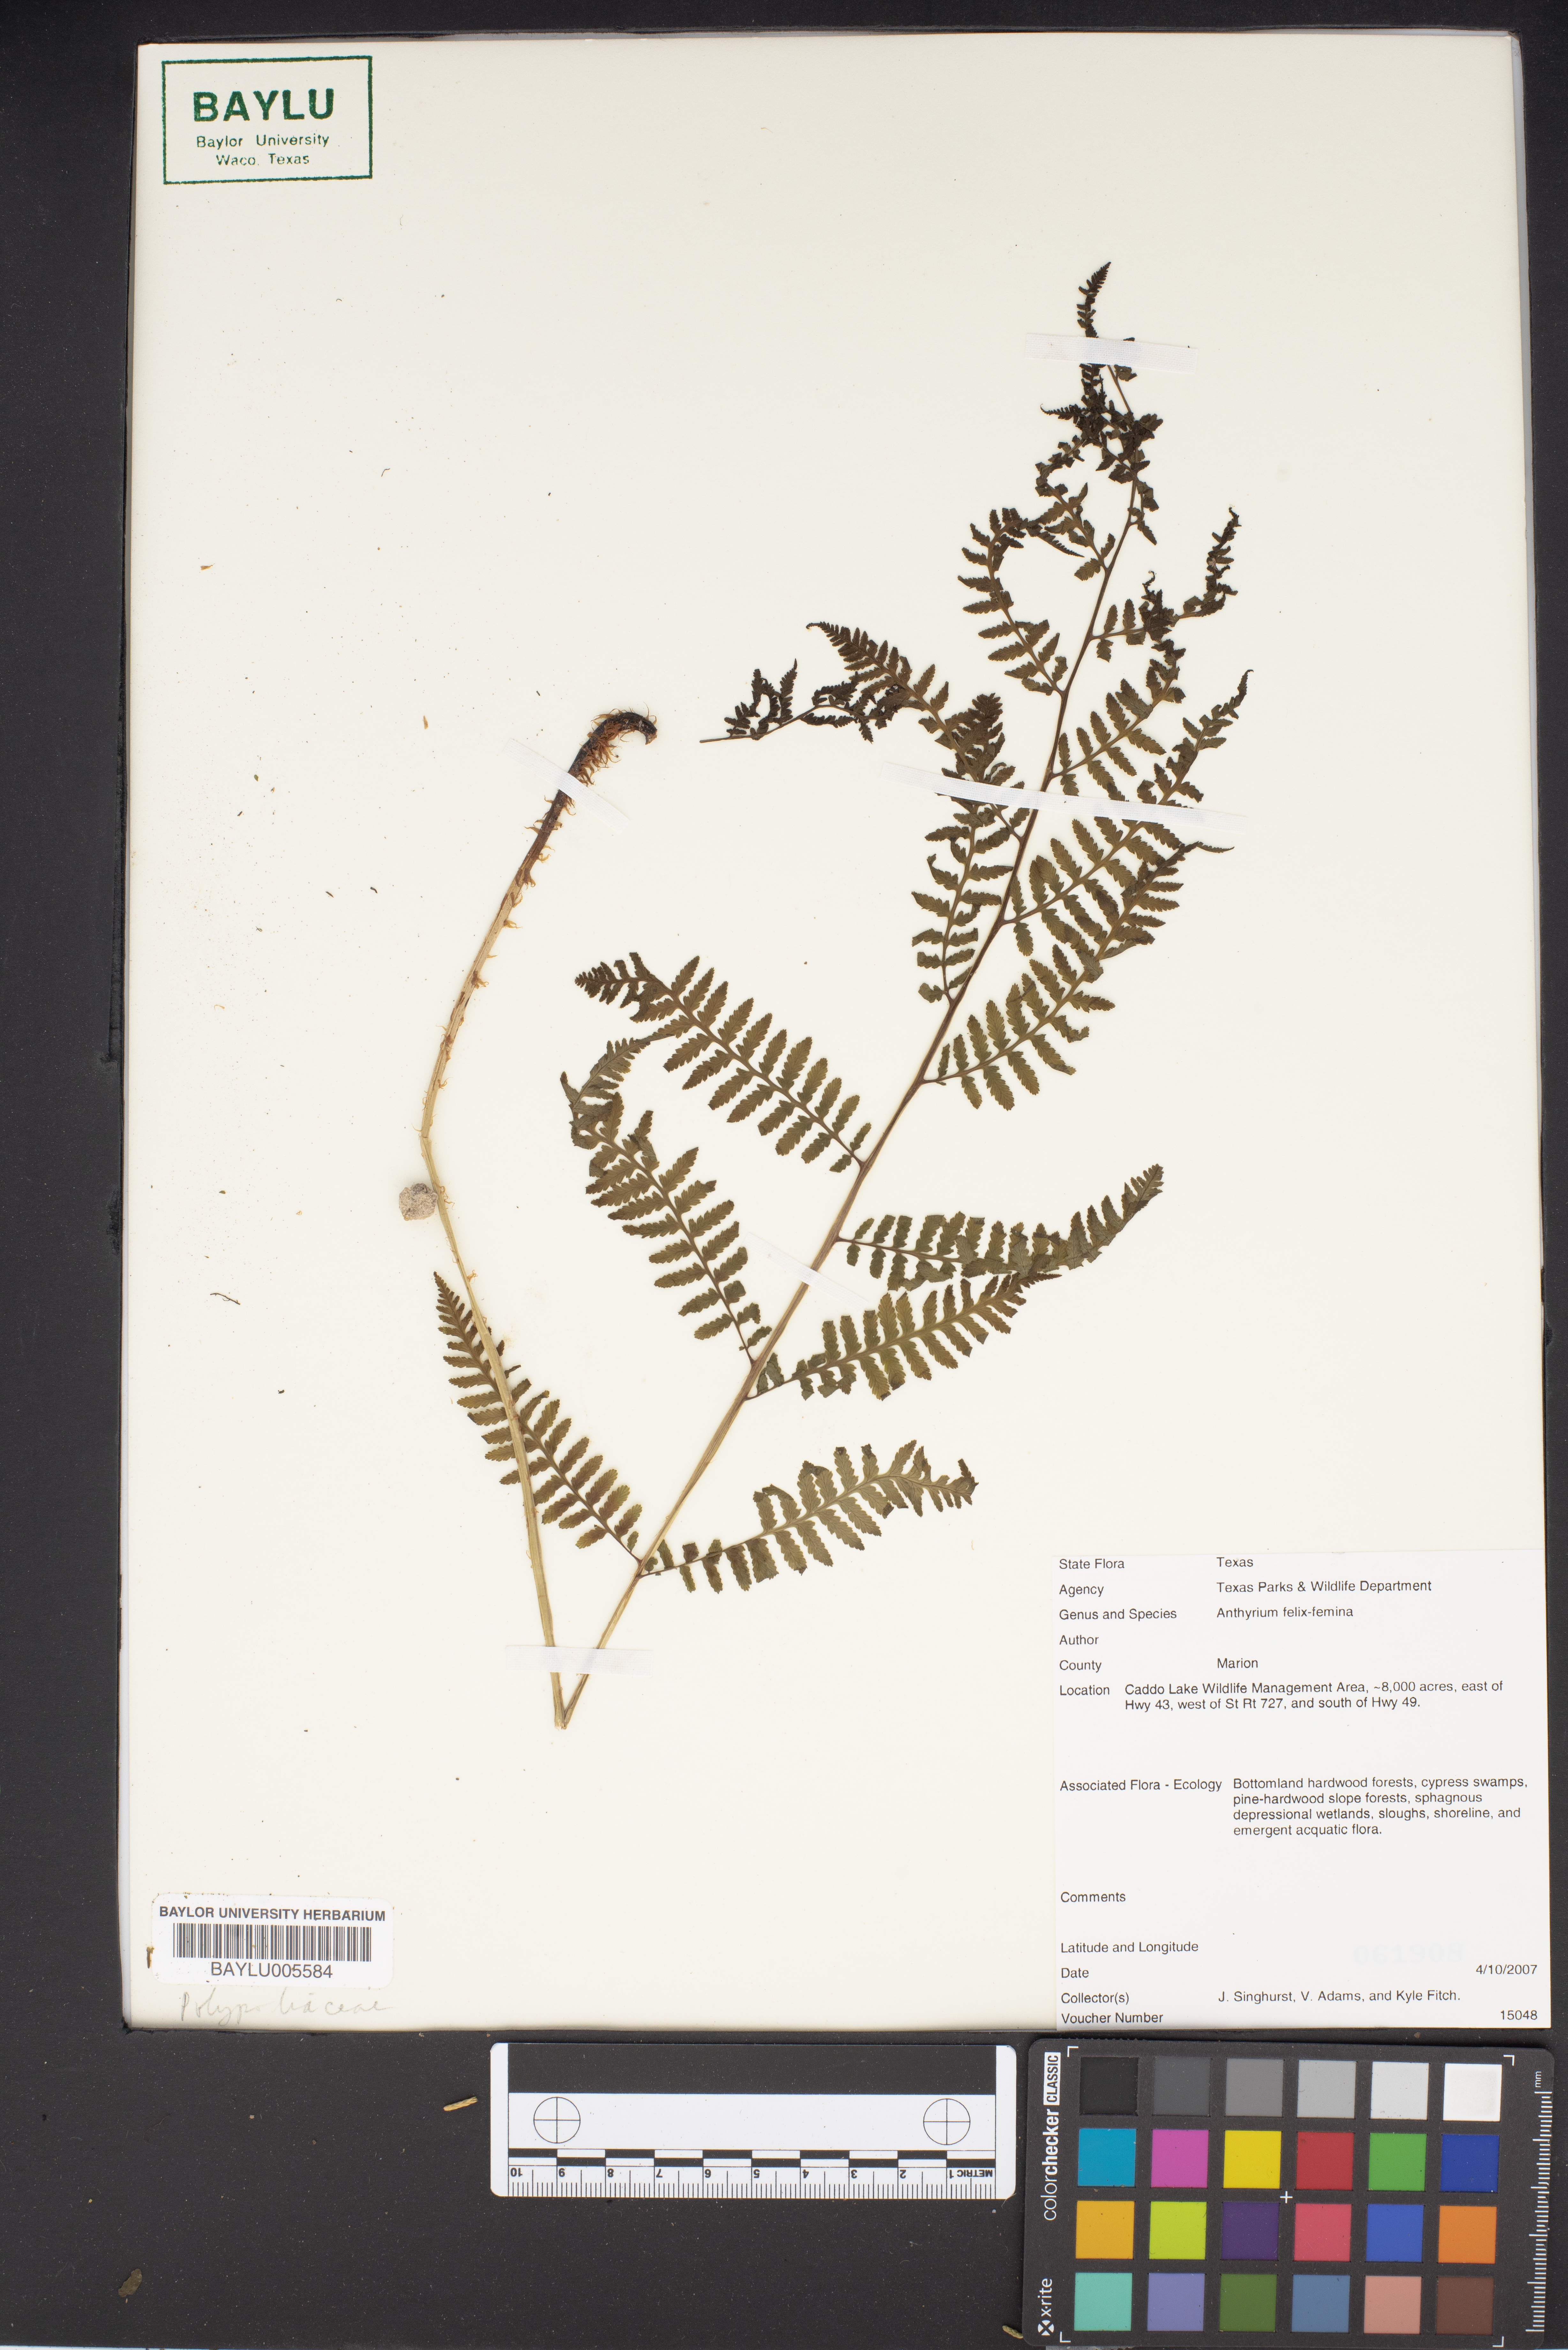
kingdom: Plantae
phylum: Tracheophyta
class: Polypodiopsida
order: Polypodiales
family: Athyriaceae
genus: Athyrium
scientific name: Athyrium filix-femina
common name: Lady fern
